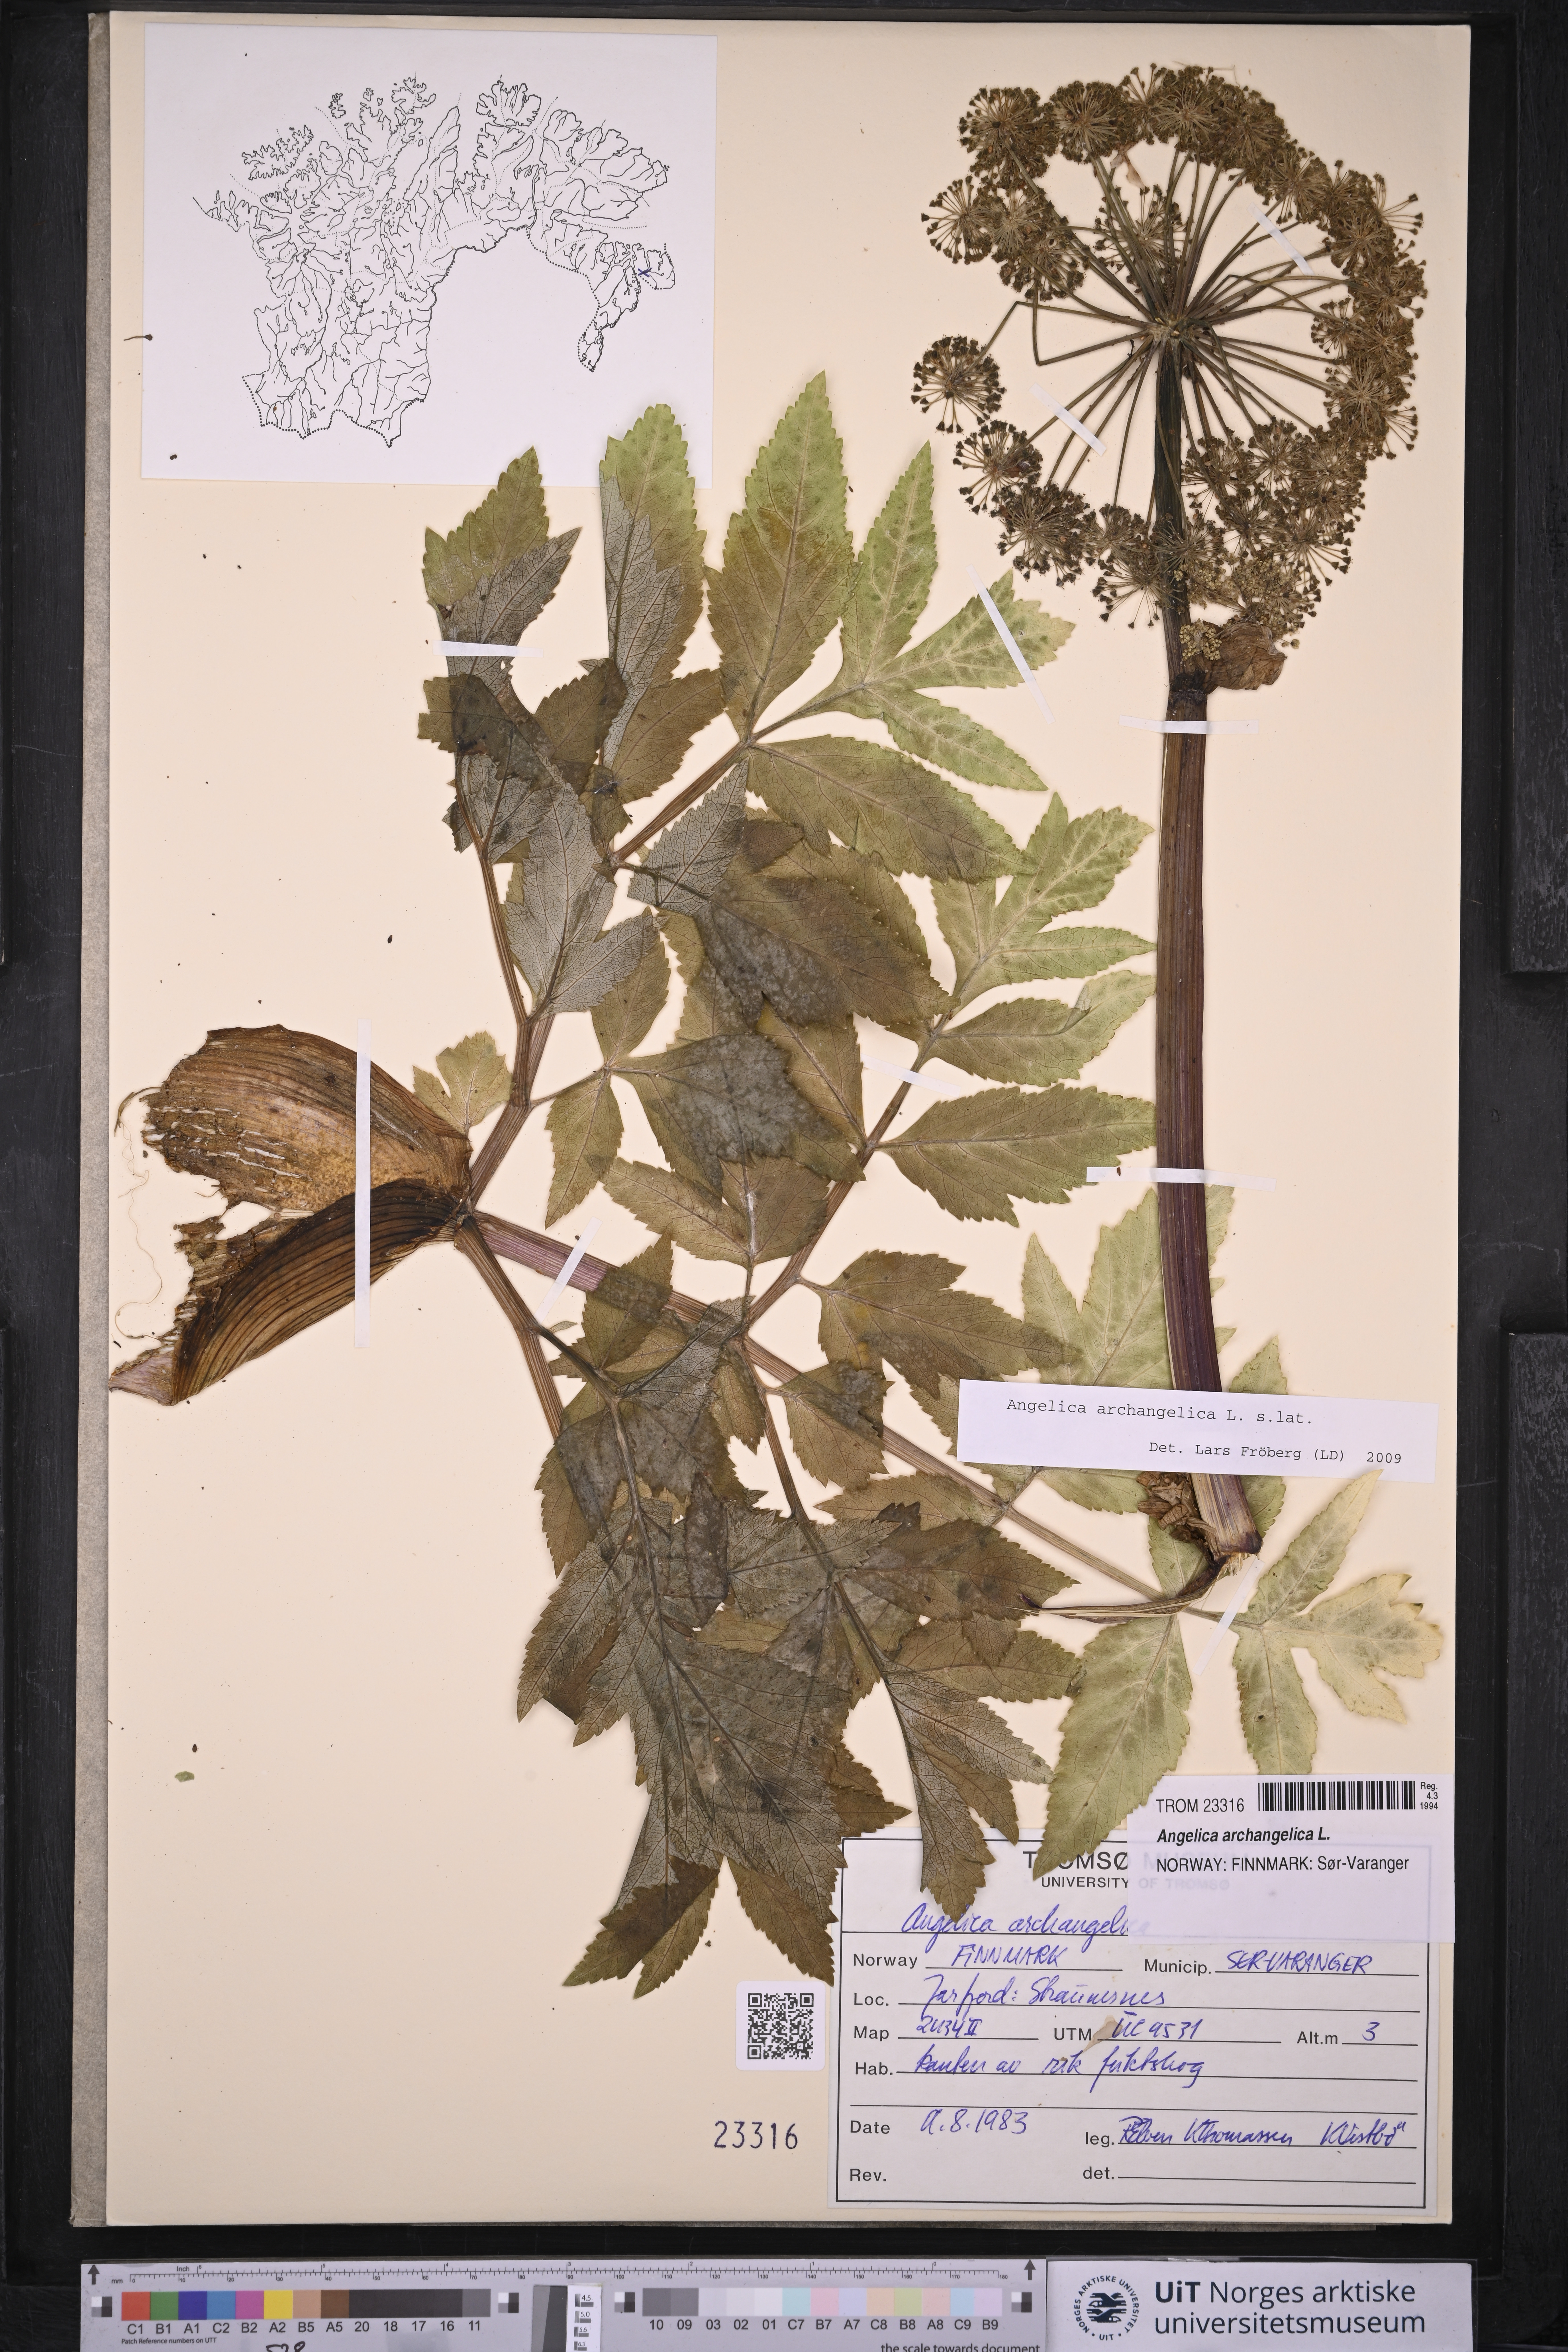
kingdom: Plantae
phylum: Tracheophyta
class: Magnoliopsida
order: Apiales
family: Apiaceae
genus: Angelica
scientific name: Angelica archangelica
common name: Garden angelica
